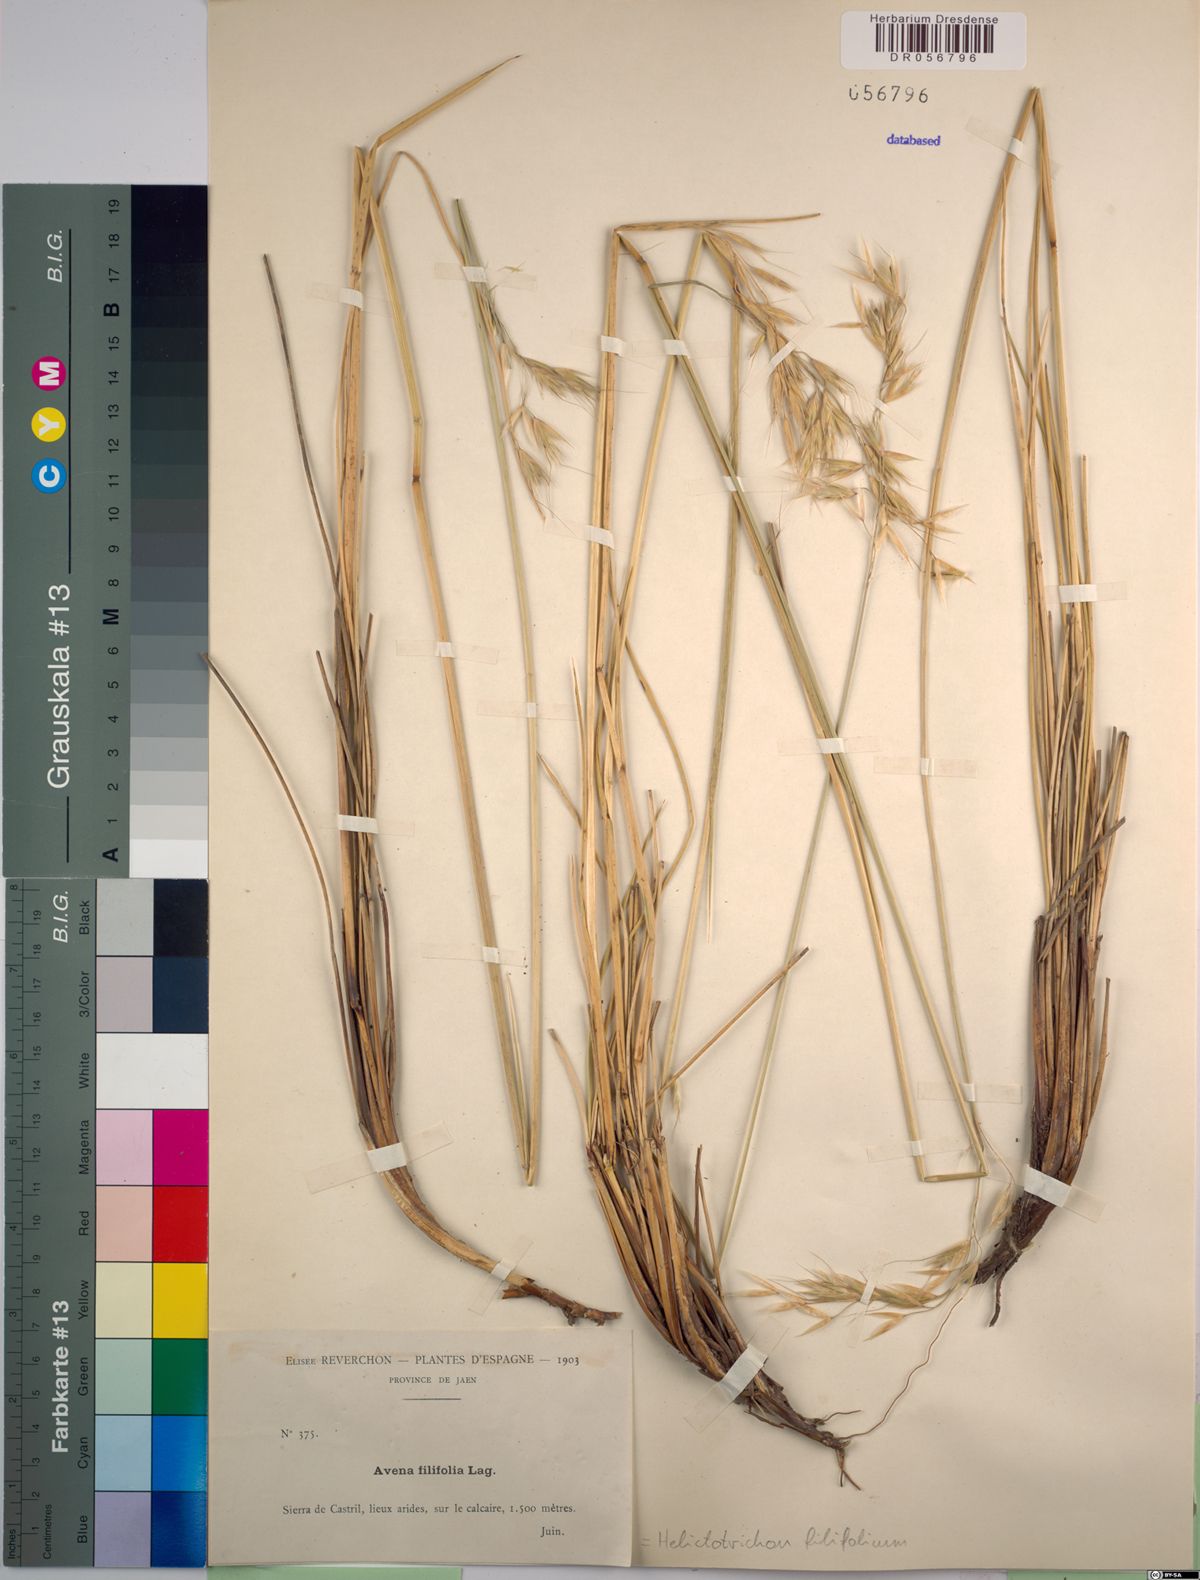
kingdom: Plantae
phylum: Tracheophyta
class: Liliopsida
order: Poales
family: Poaceae
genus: Helictotrichon
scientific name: Helictotrichon filifolium
